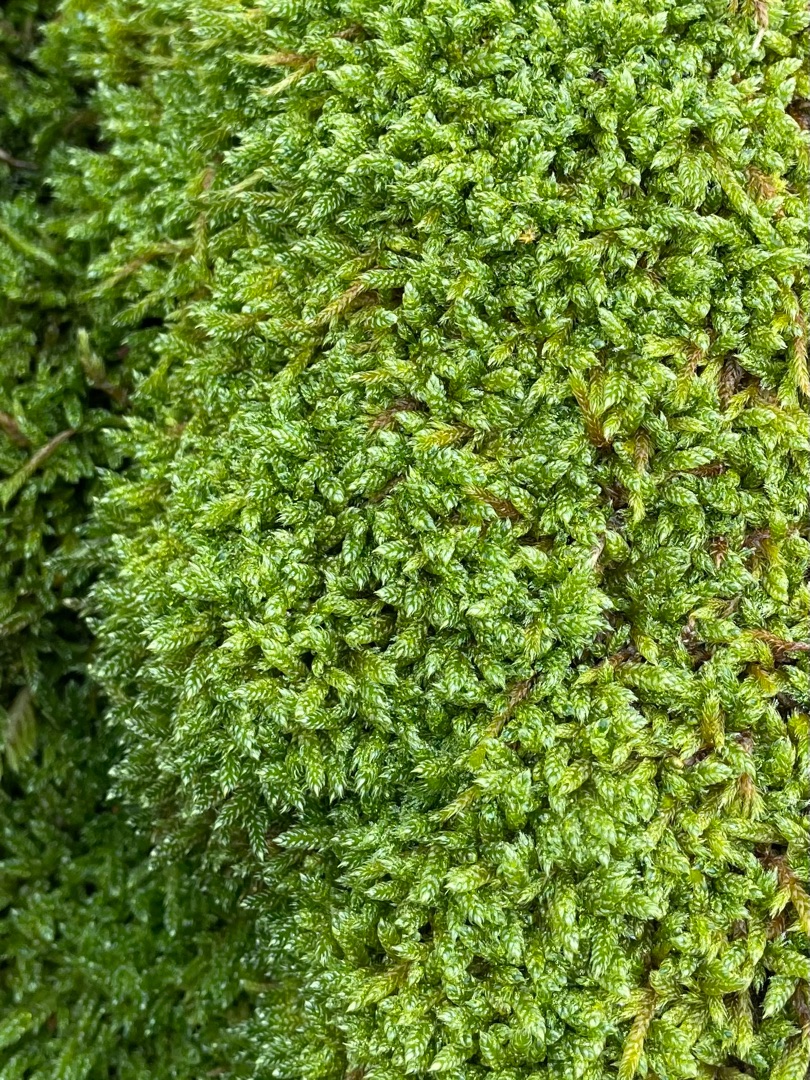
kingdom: Plantae
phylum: Bryophyta
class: Bryopsida
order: Hypnales
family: Hypnaceae
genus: Hypnum
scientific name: Hypnum cupressiforme
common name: Almindelig cypresmos
